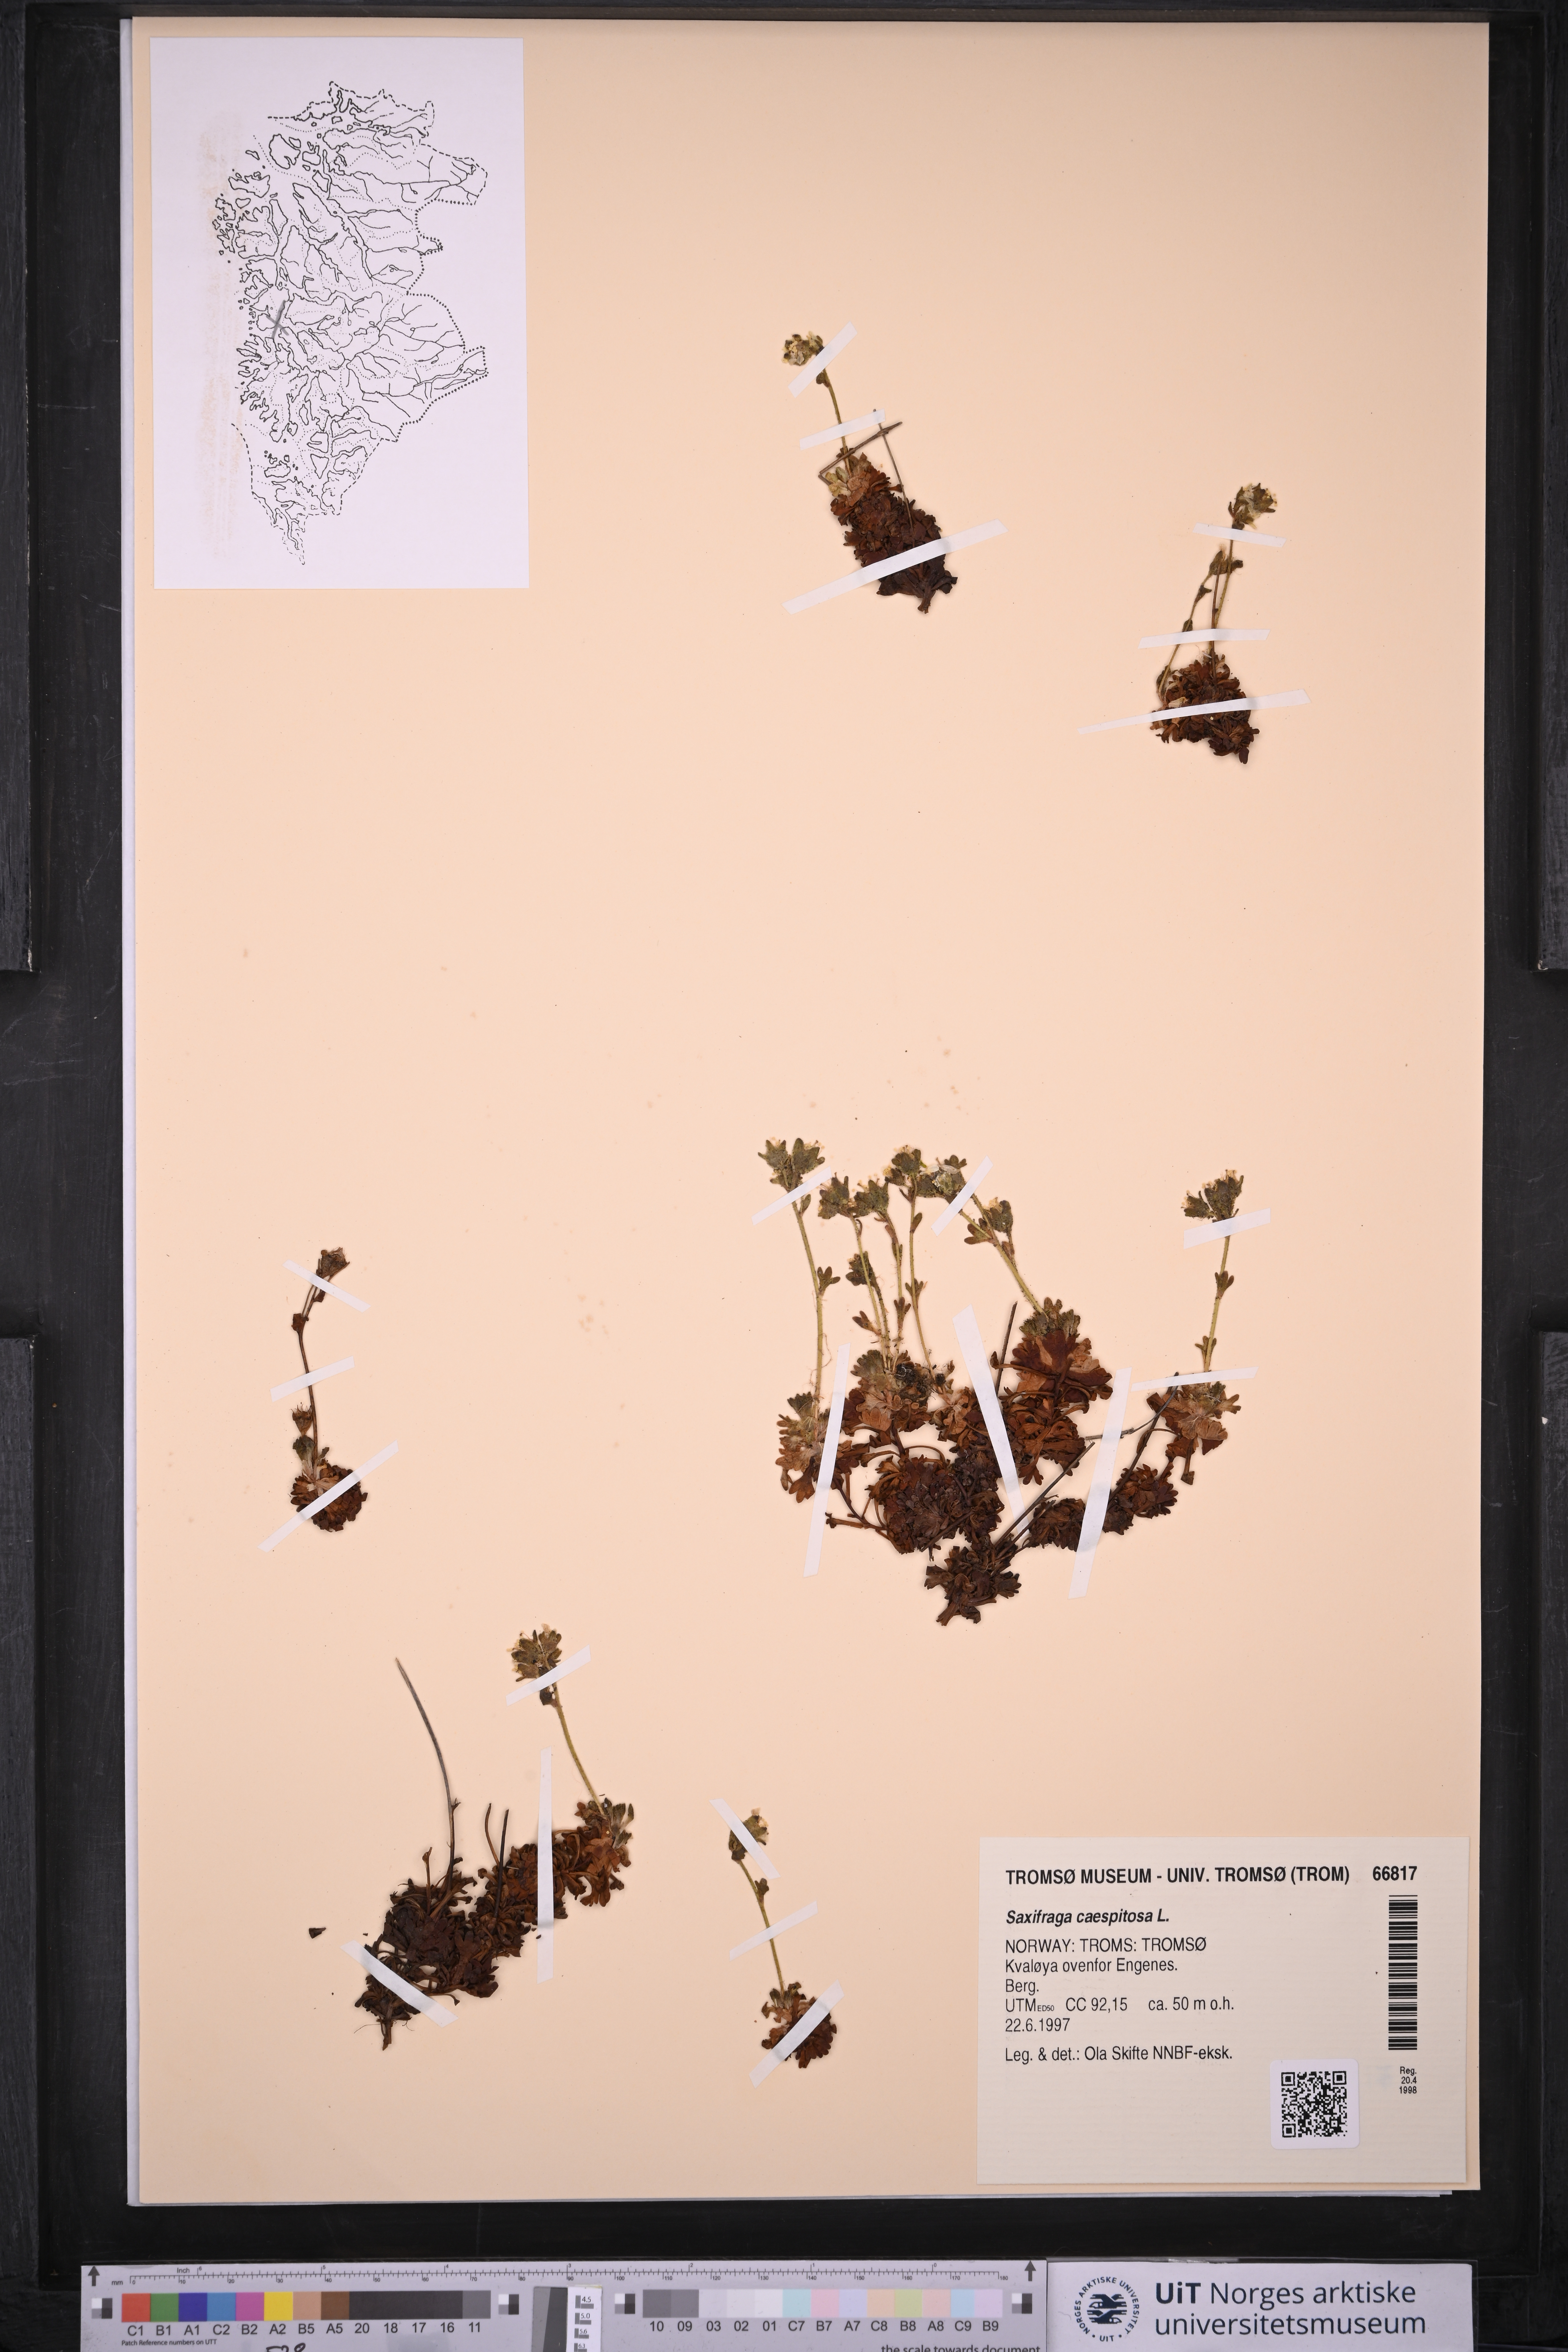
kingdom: Plantae
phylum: Tracheophyta
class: Magnoliopsida
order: Saxifragales
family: Saxifragaceae
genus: Saxifraga
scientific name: Saxifraga cespitosa
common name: Tufted saxifrage
